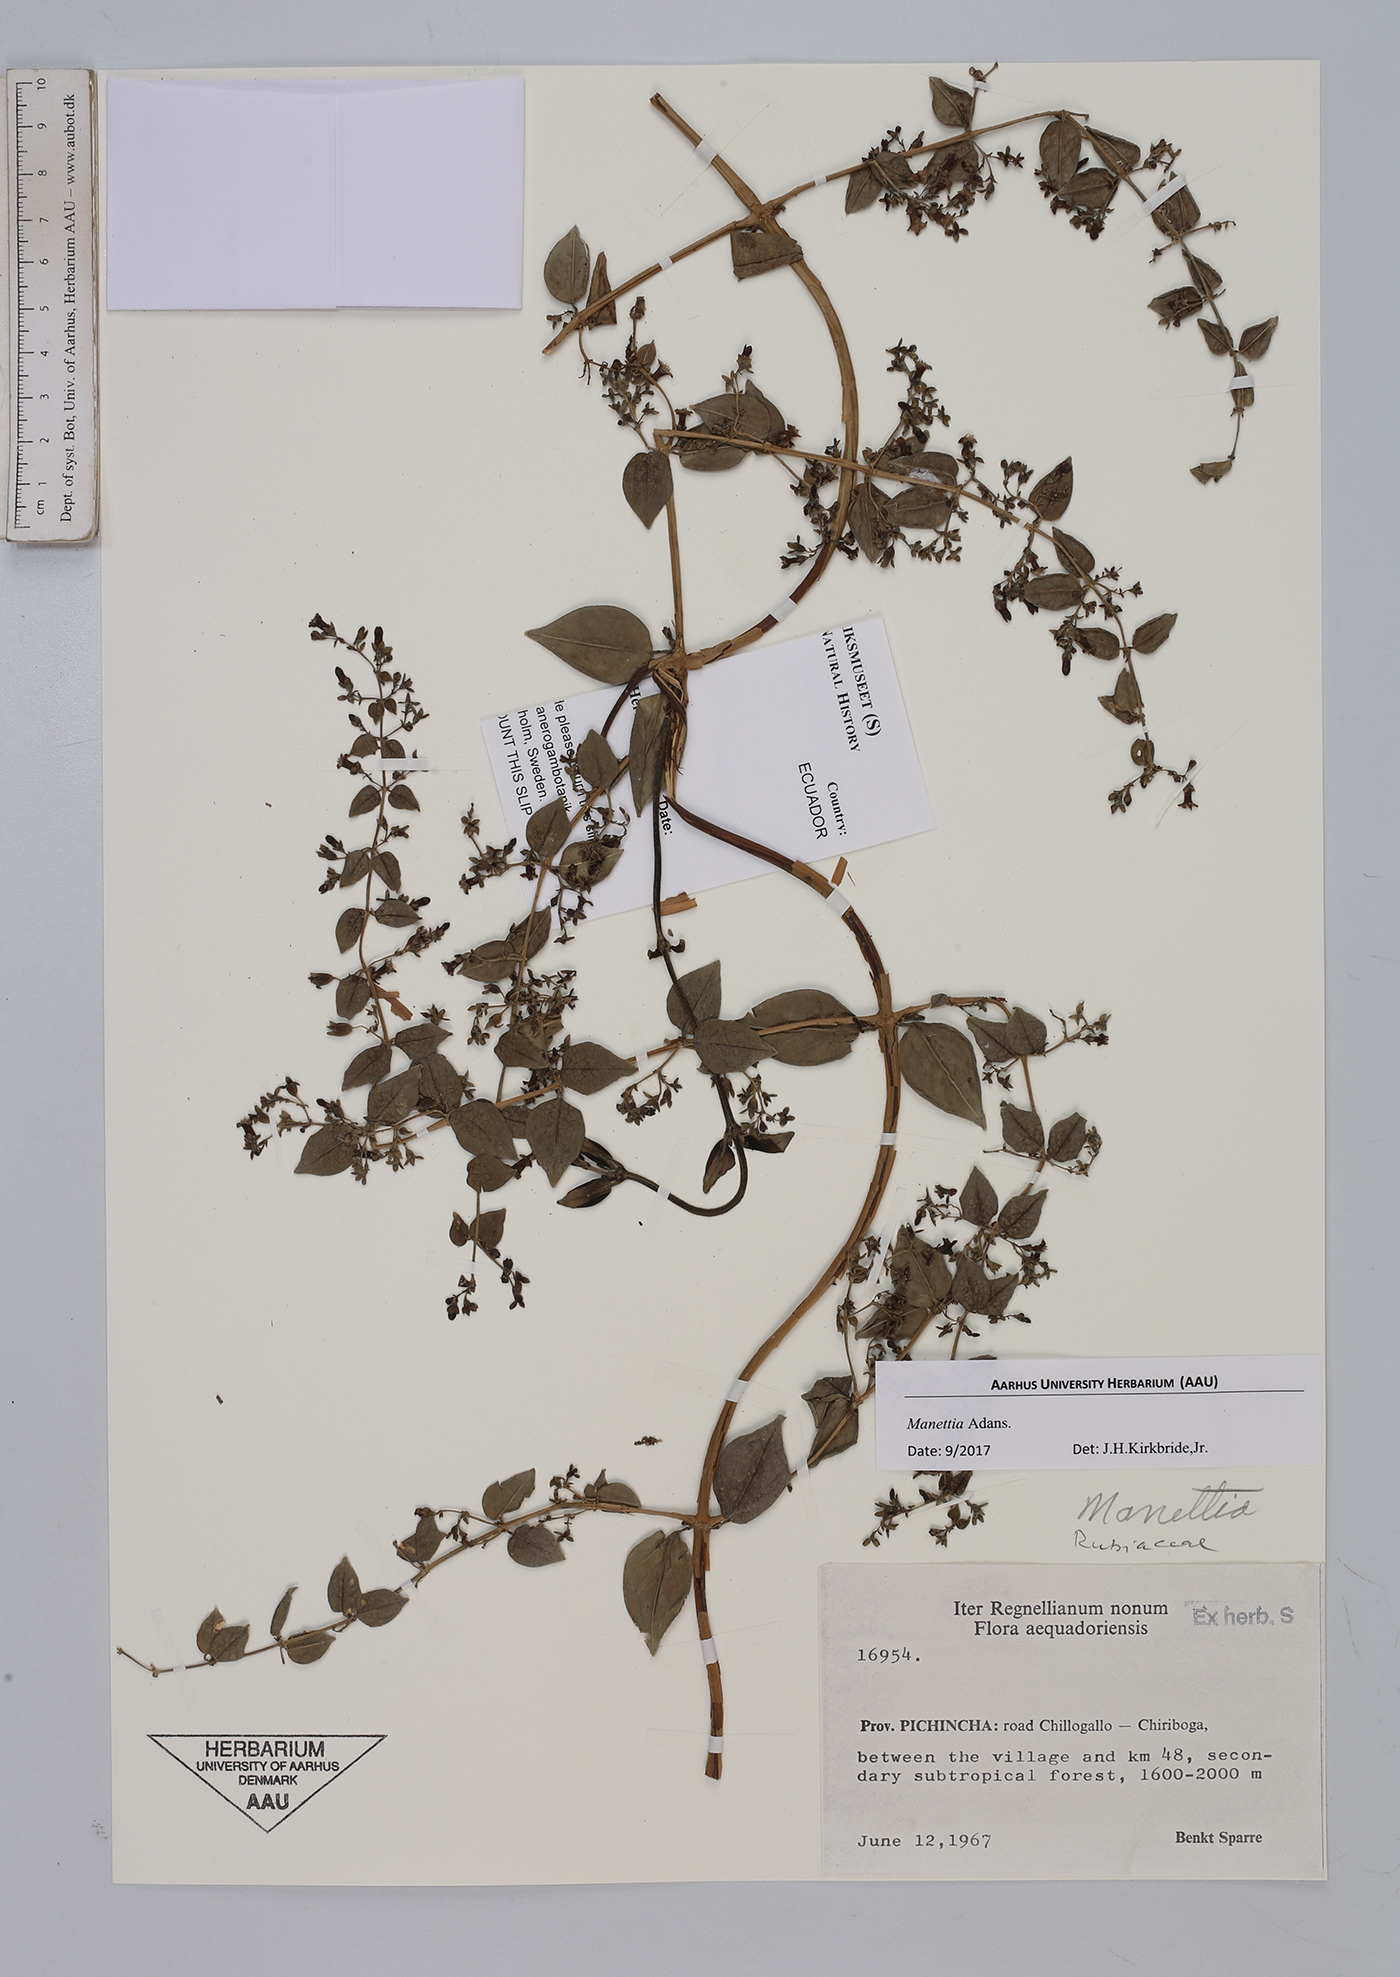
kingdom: Plantae
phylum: Tracheophyta
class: Magnoliopsida
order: Gentianales
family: Rubiaceae
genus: Manettia
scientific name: Manettia
